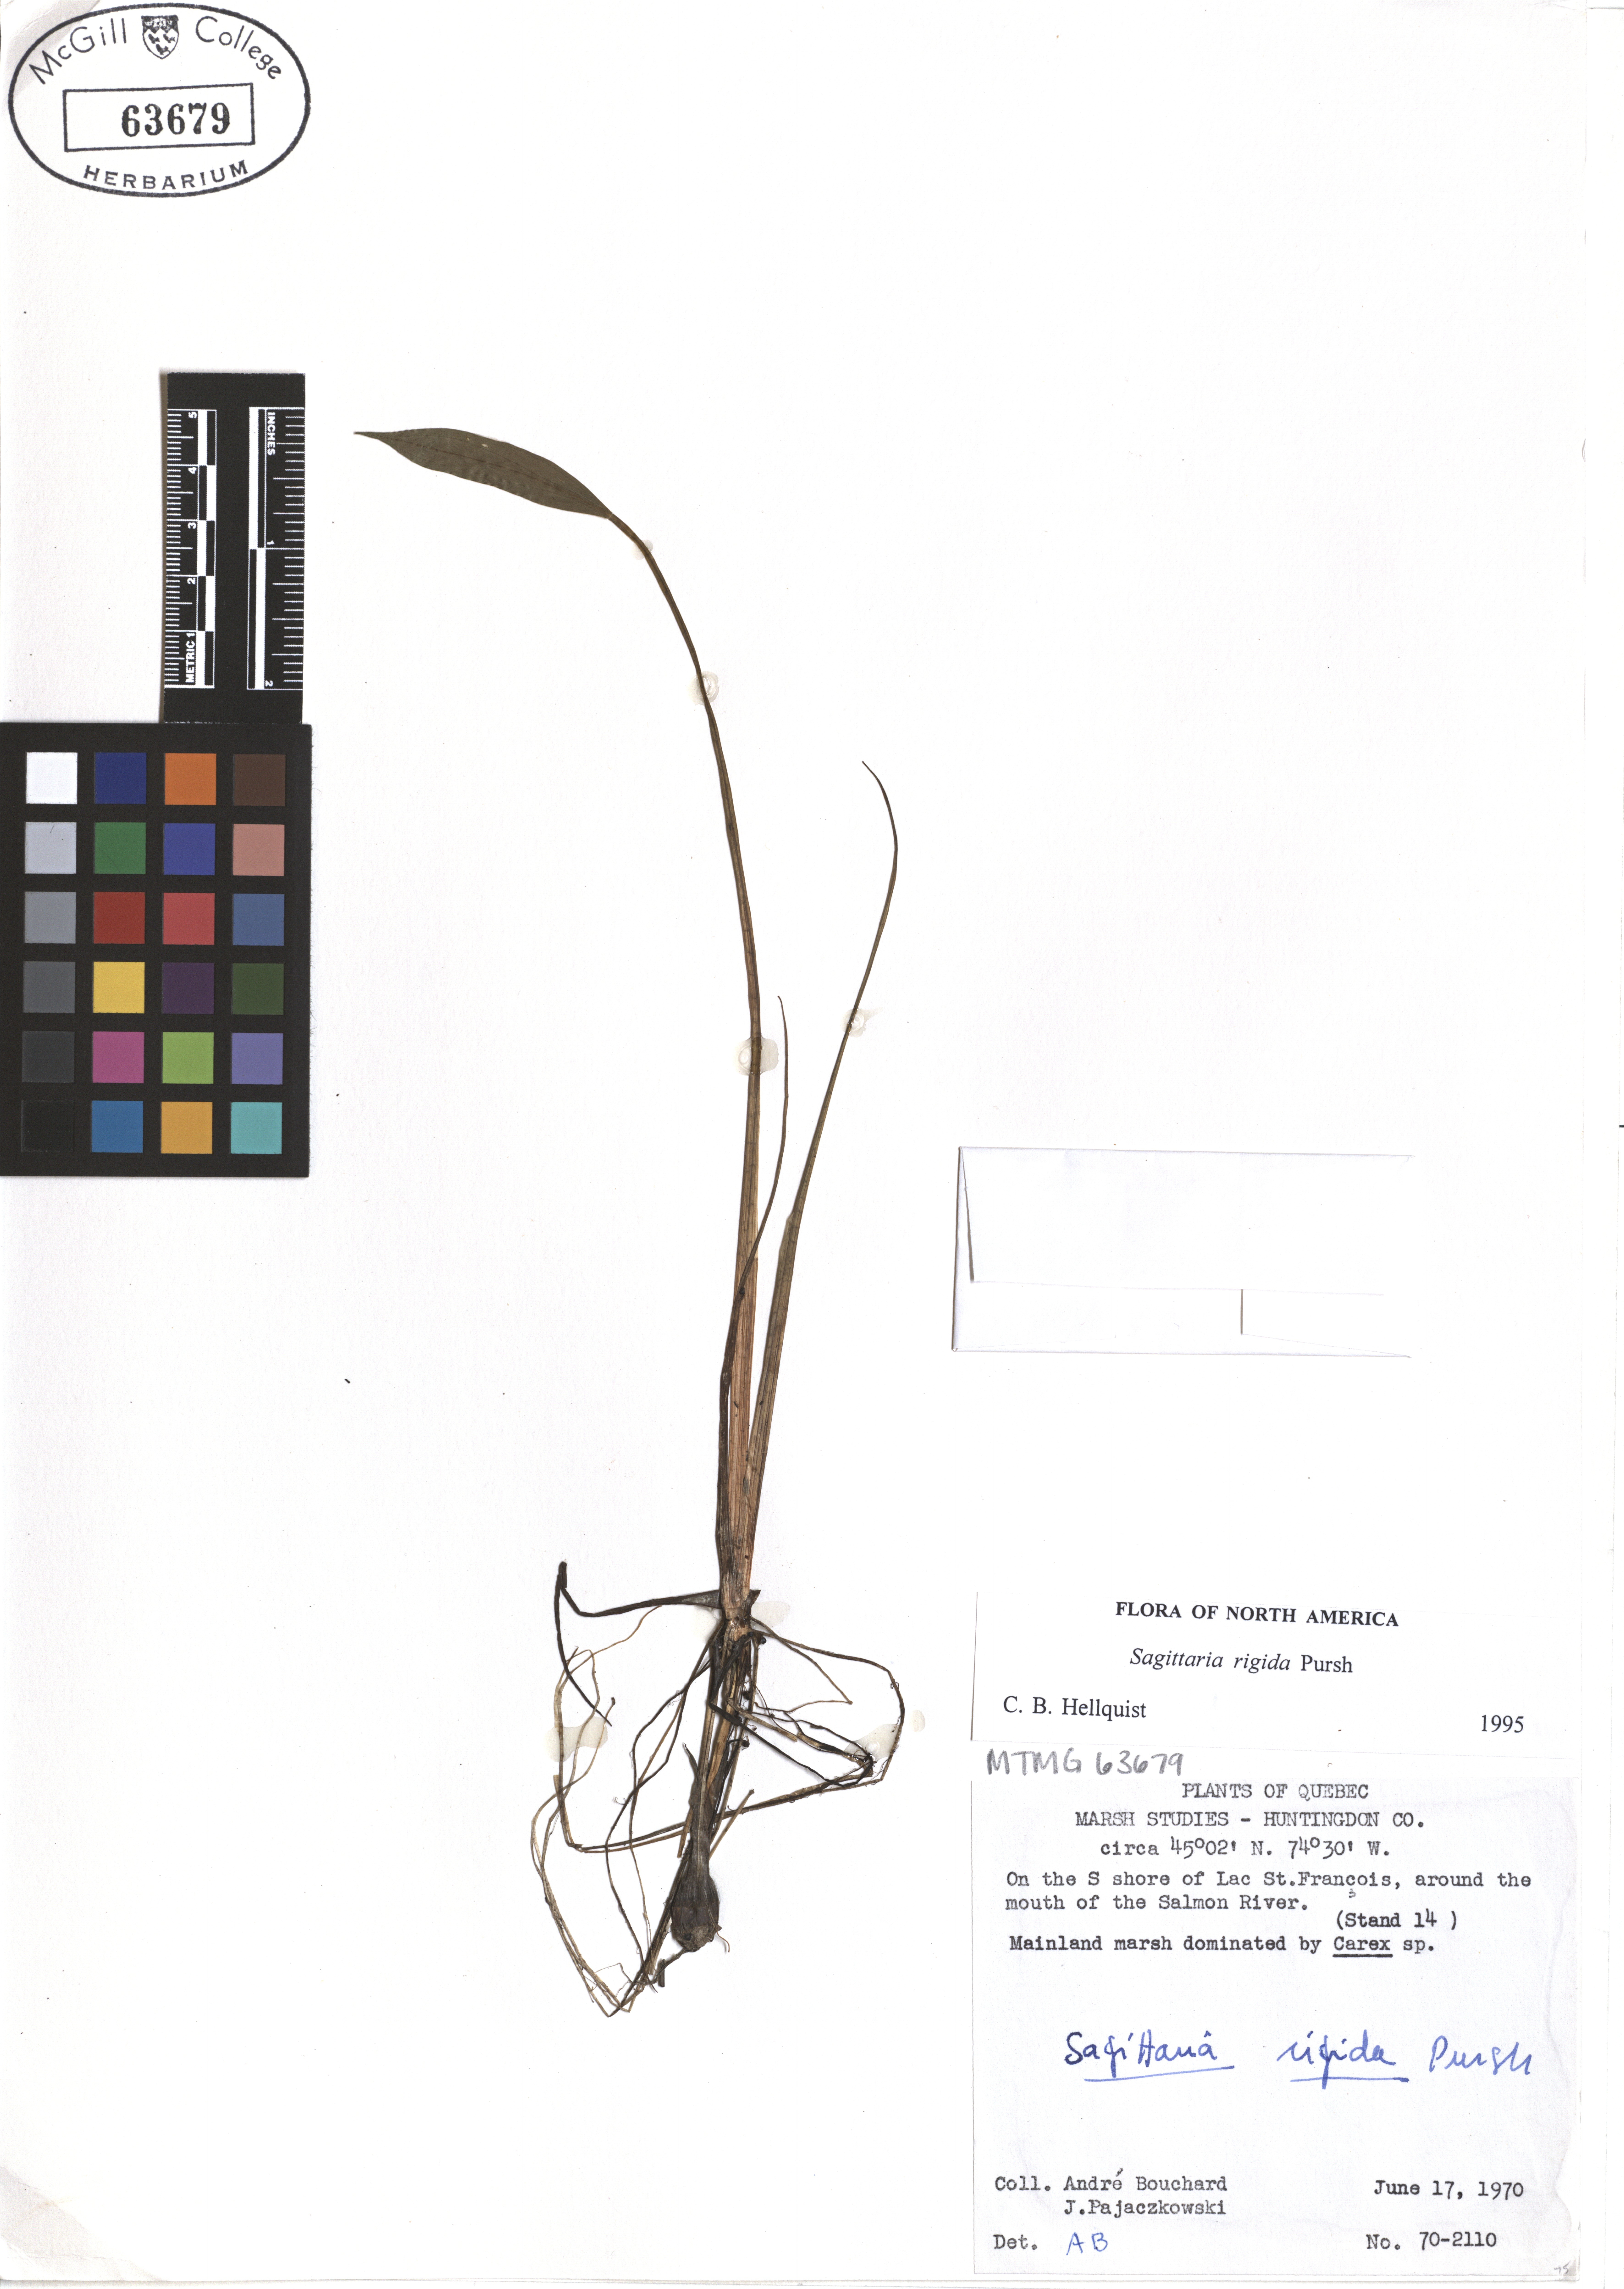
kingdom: Plantae
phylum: Tracheophyta
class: Liliopsida
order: Alismatales
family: Alismataceae
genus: Sagittaria
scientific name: Sagittaria rigida
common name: Canadian arrowhead
